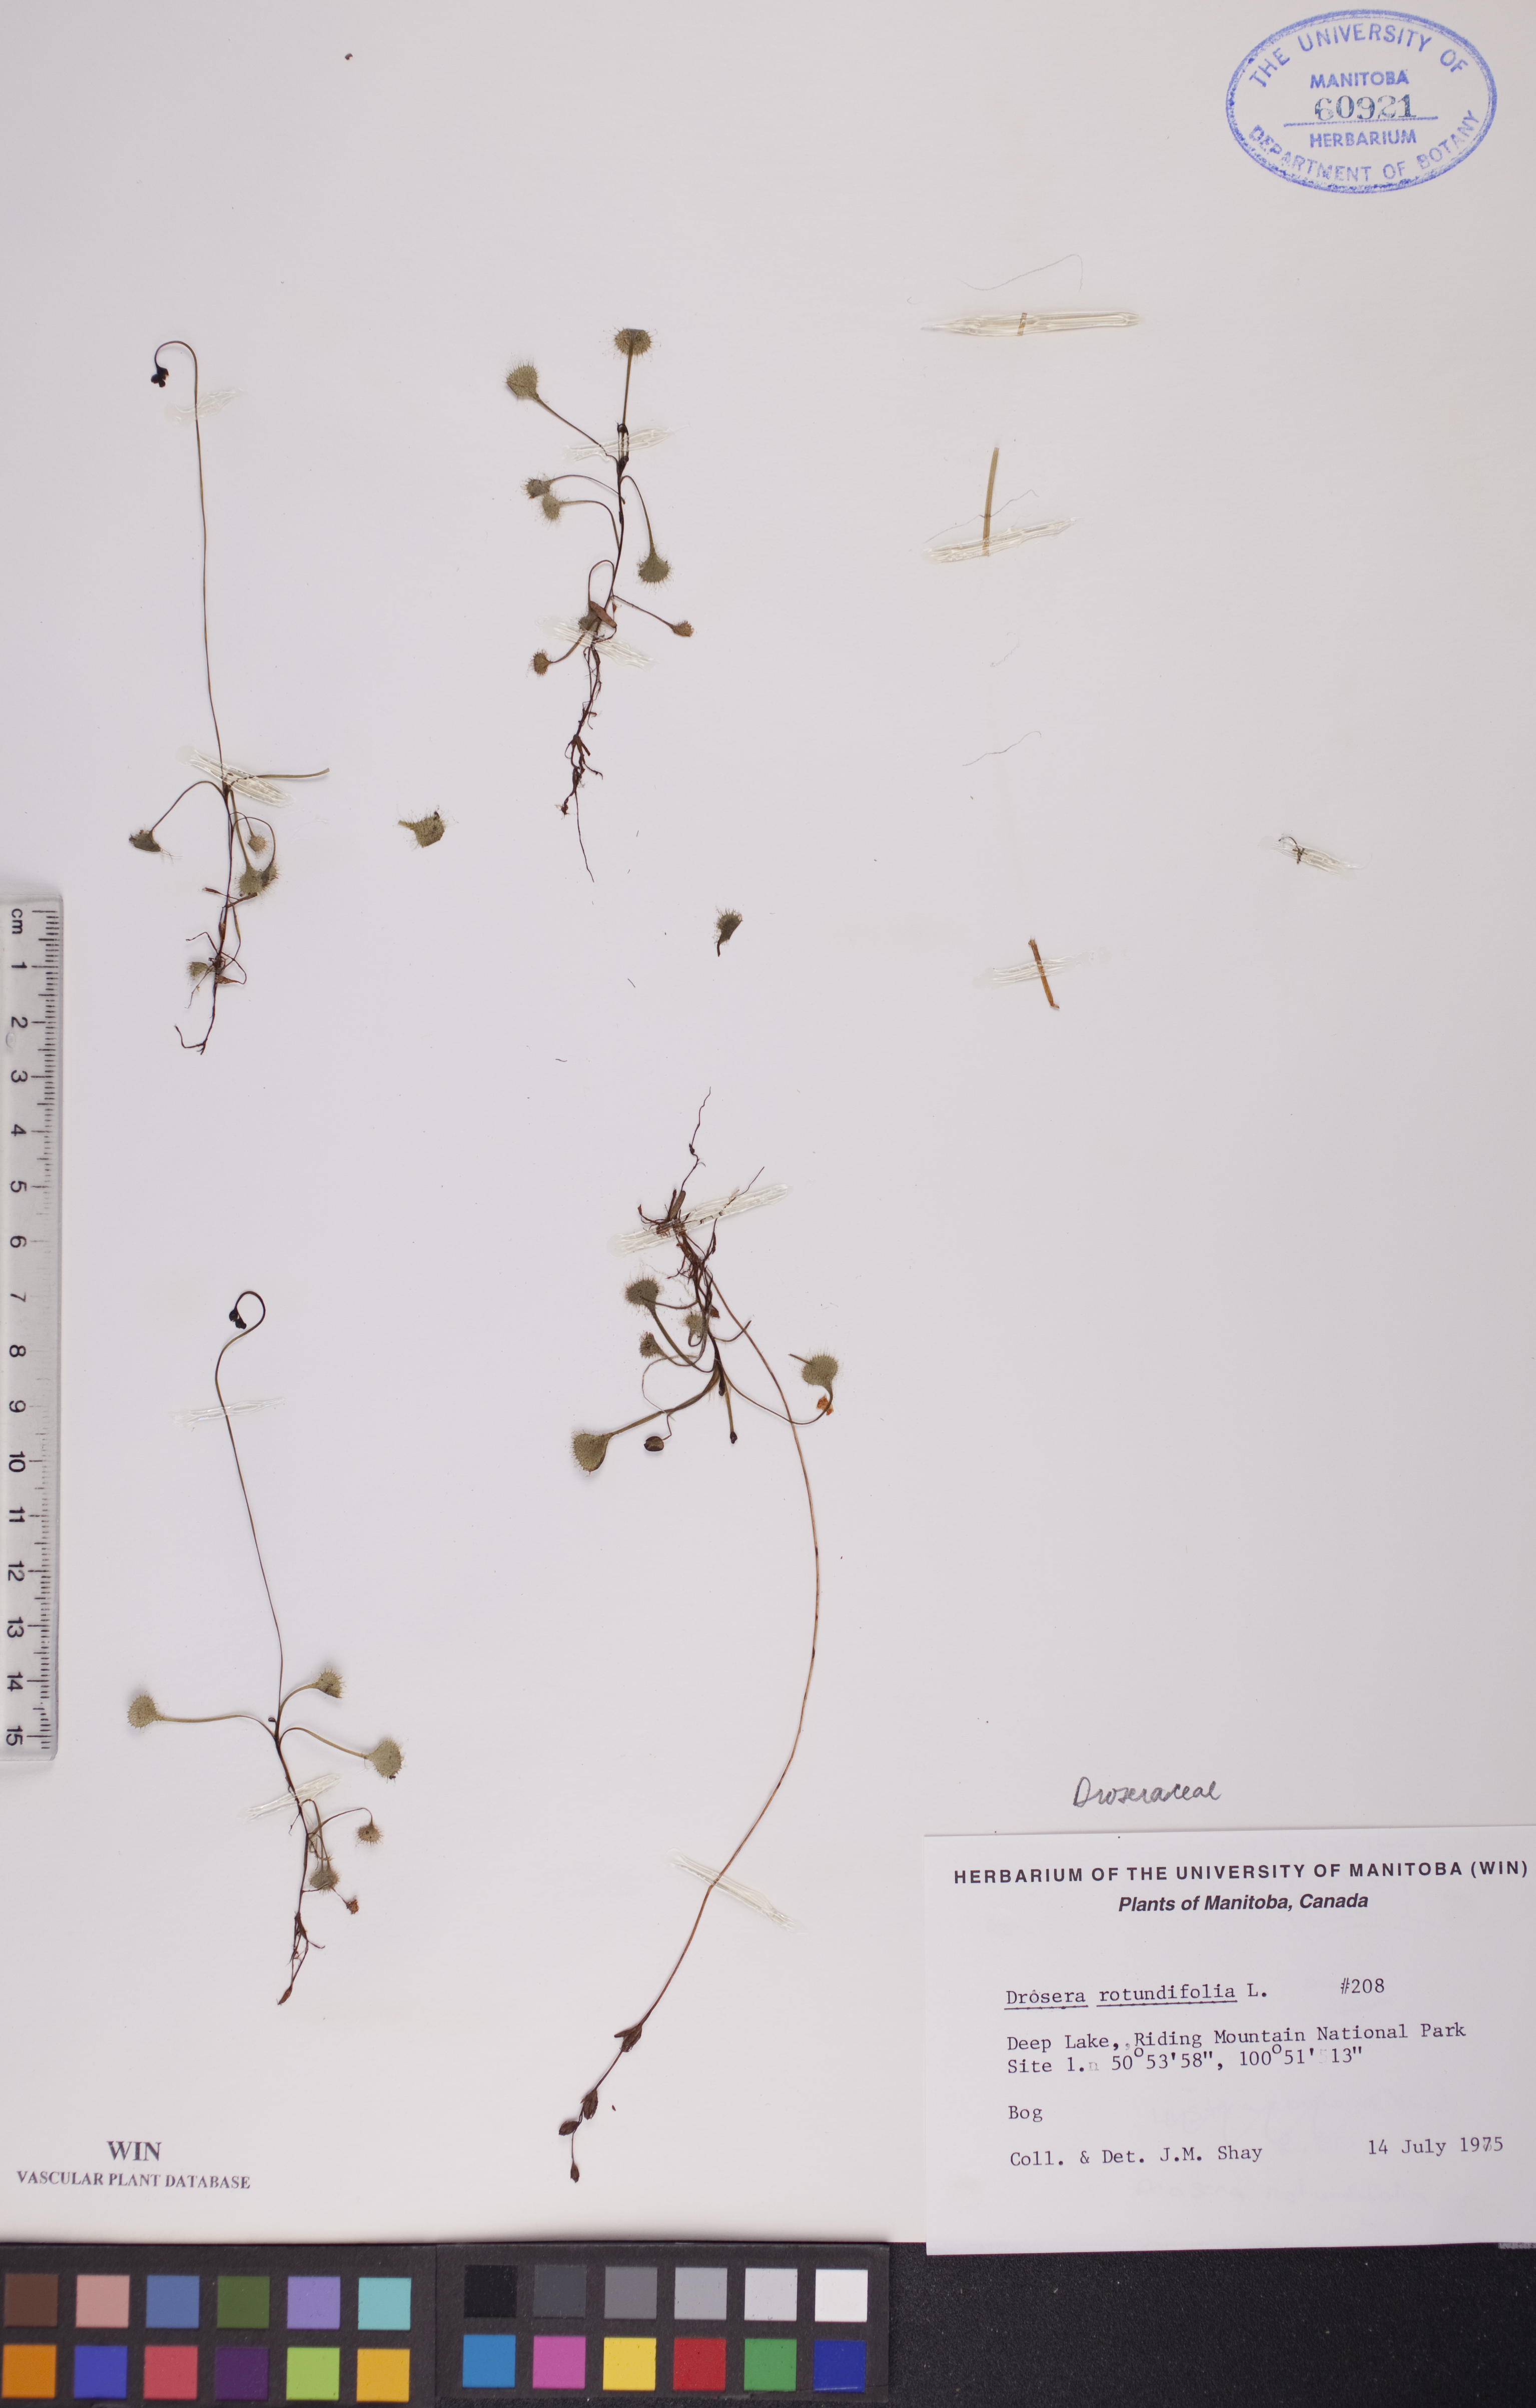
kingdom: Plantae
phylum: Tracheophyta
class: Magnoliopsida
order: Caryophyllales
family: Droseraceae
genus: Drosera
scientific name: Drosera rotundifolia
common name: Round-leaved sundew
